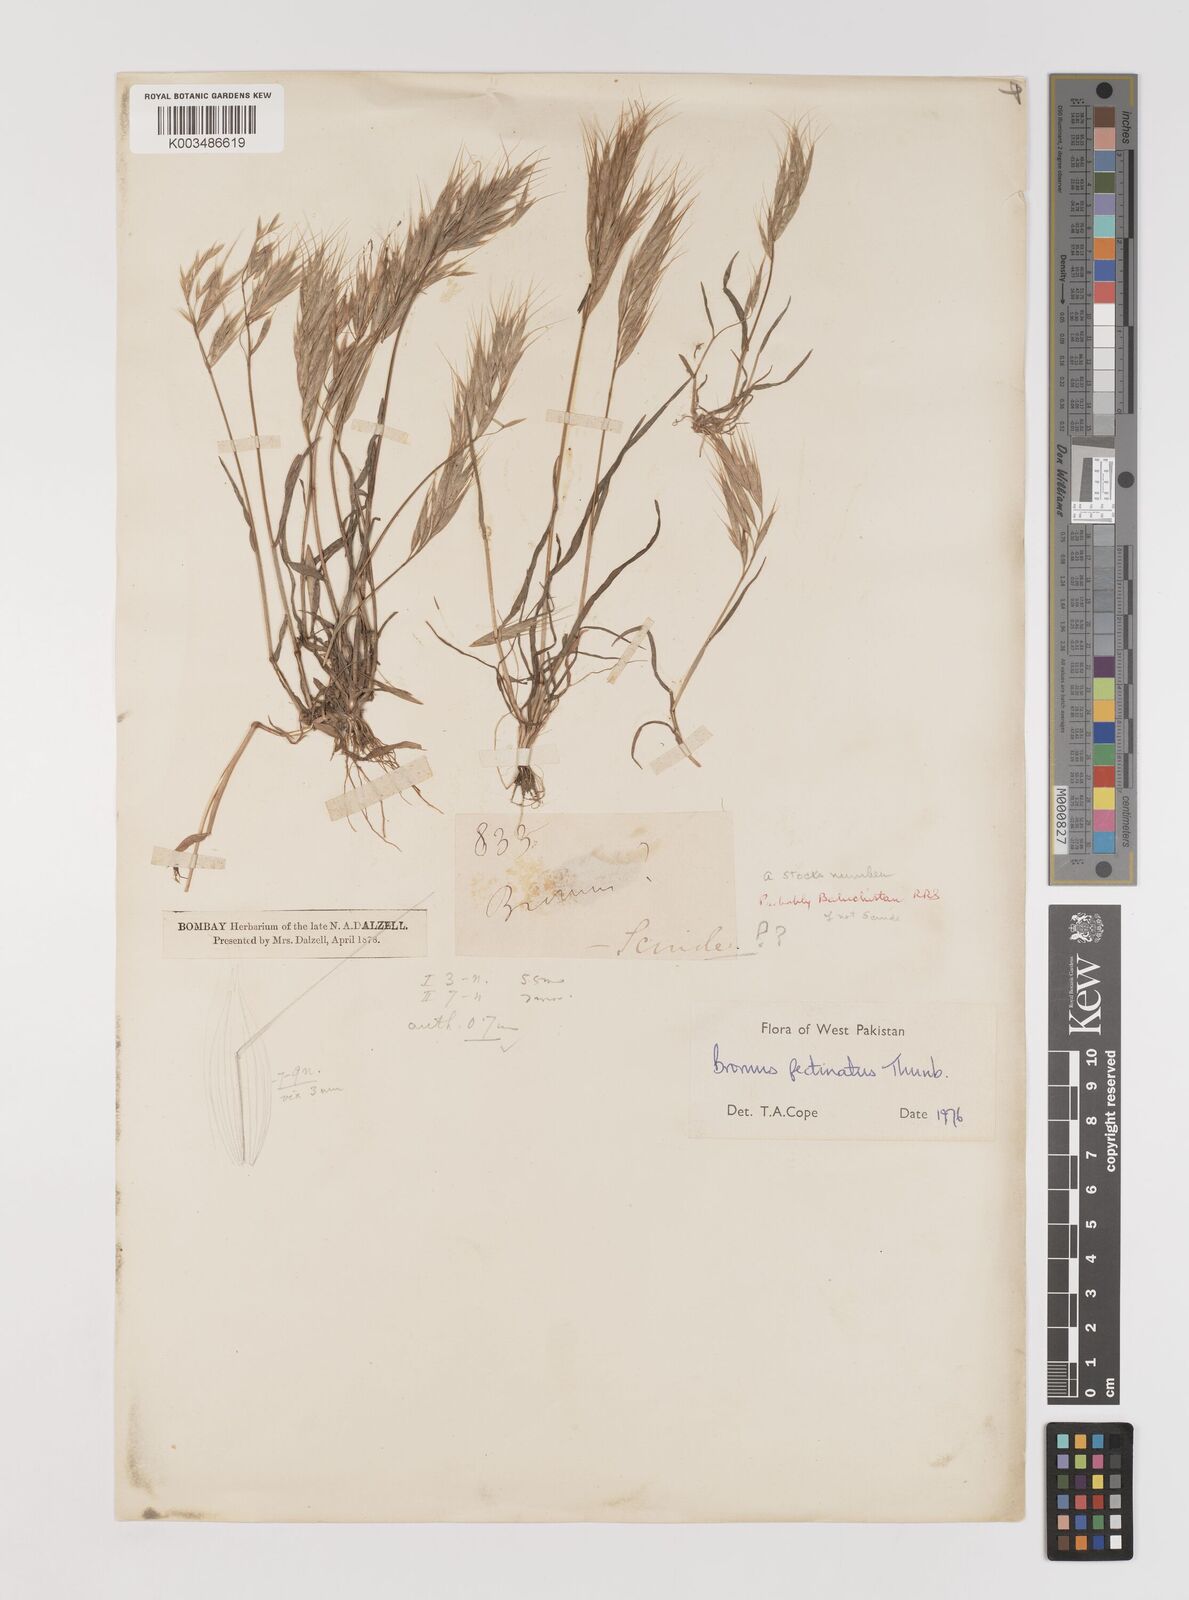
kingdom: Plantae
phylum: Tracheophyta
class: Liliopsida
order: Poales
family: Poaceae
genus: Bromus
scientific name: Bromus pectinatus
